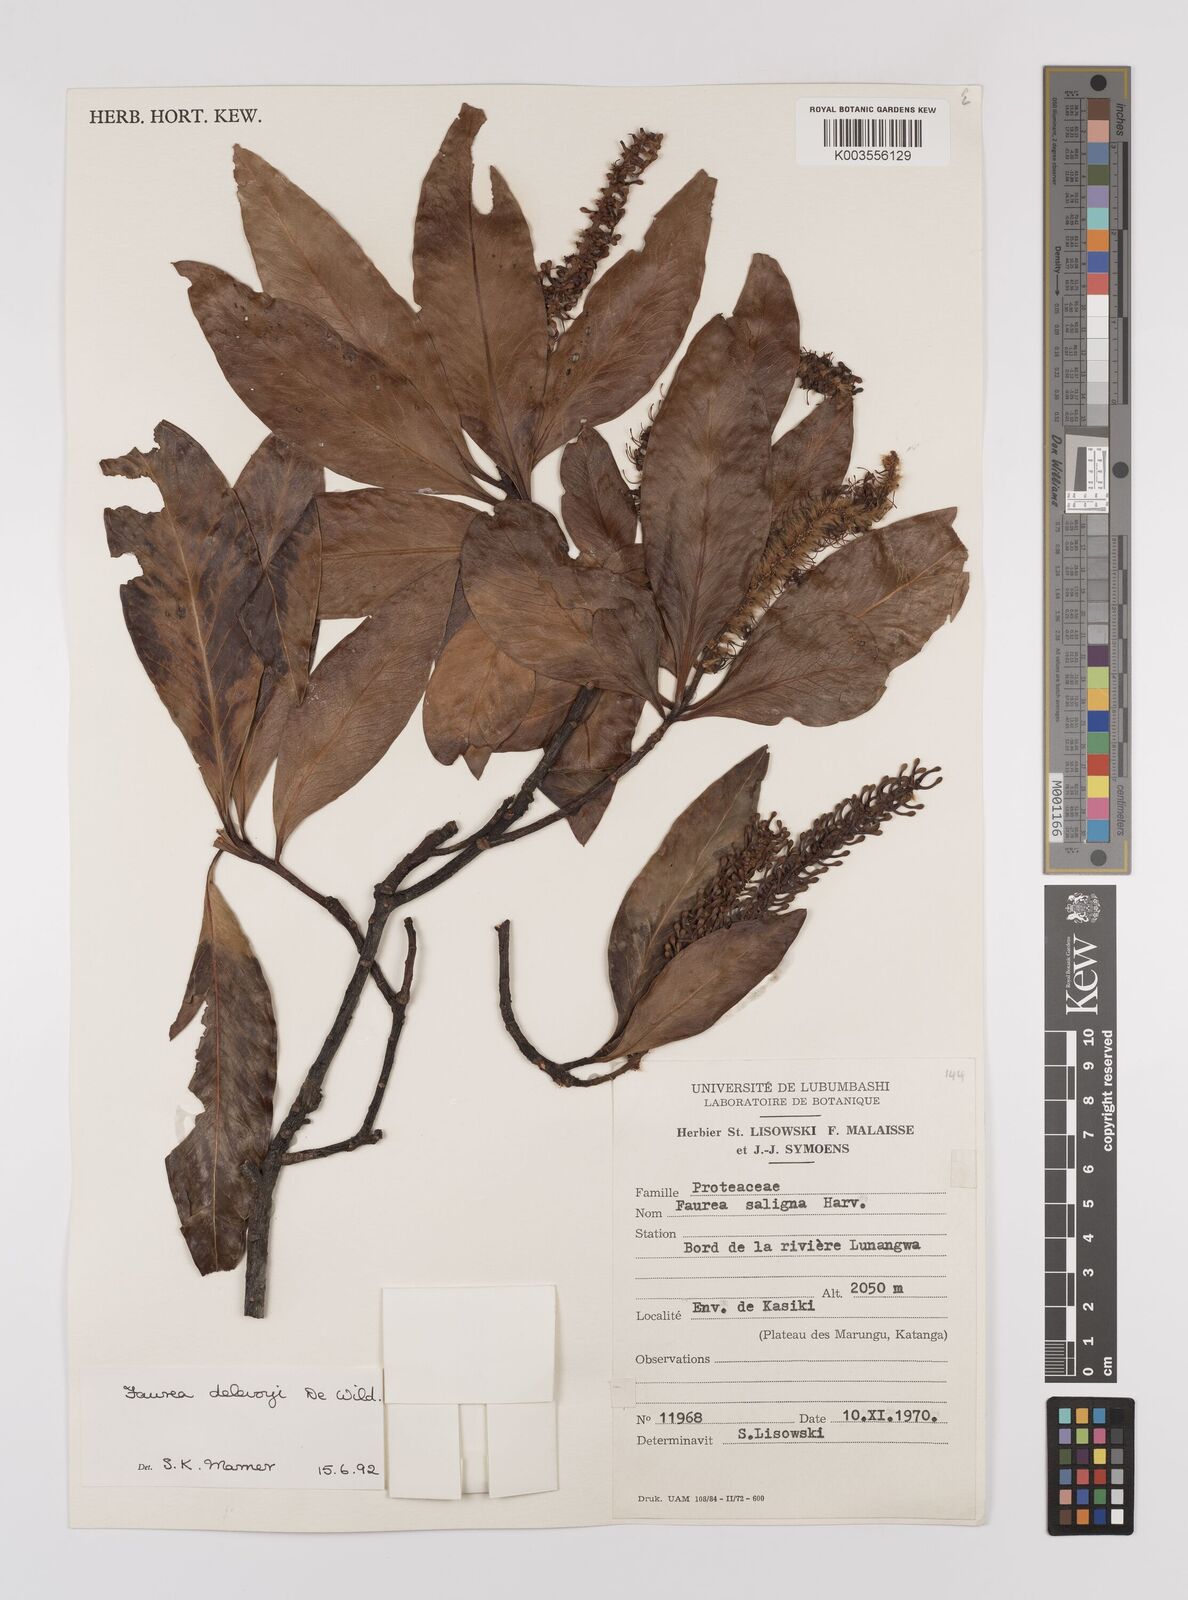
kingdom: Plantae
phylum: Tracheophyta
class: Magnoliopsida
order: Proteales
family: Proteaceae
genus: Faurea
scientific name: Faurea delevoyi
